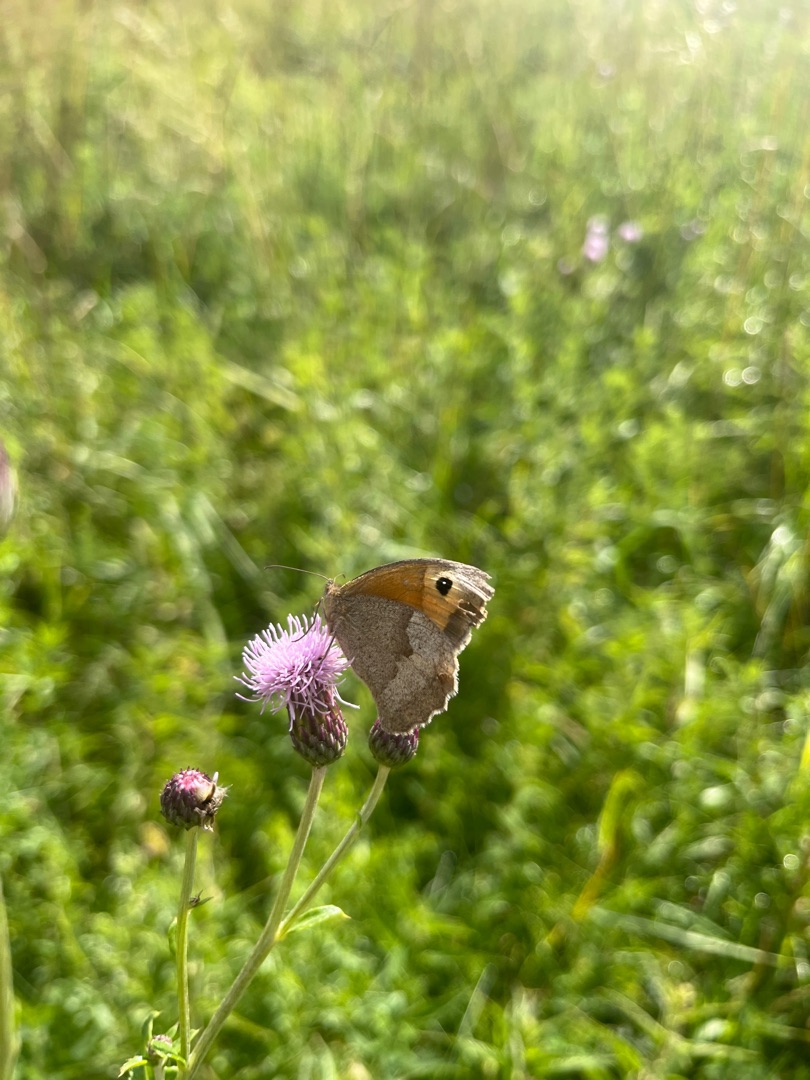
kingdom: Animalia
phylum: Arthropoda
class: Insecta
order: Lepidoptera
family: Nymphalidae
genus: Maniola
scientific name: Maniola jurtina
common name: Græsrandøje
